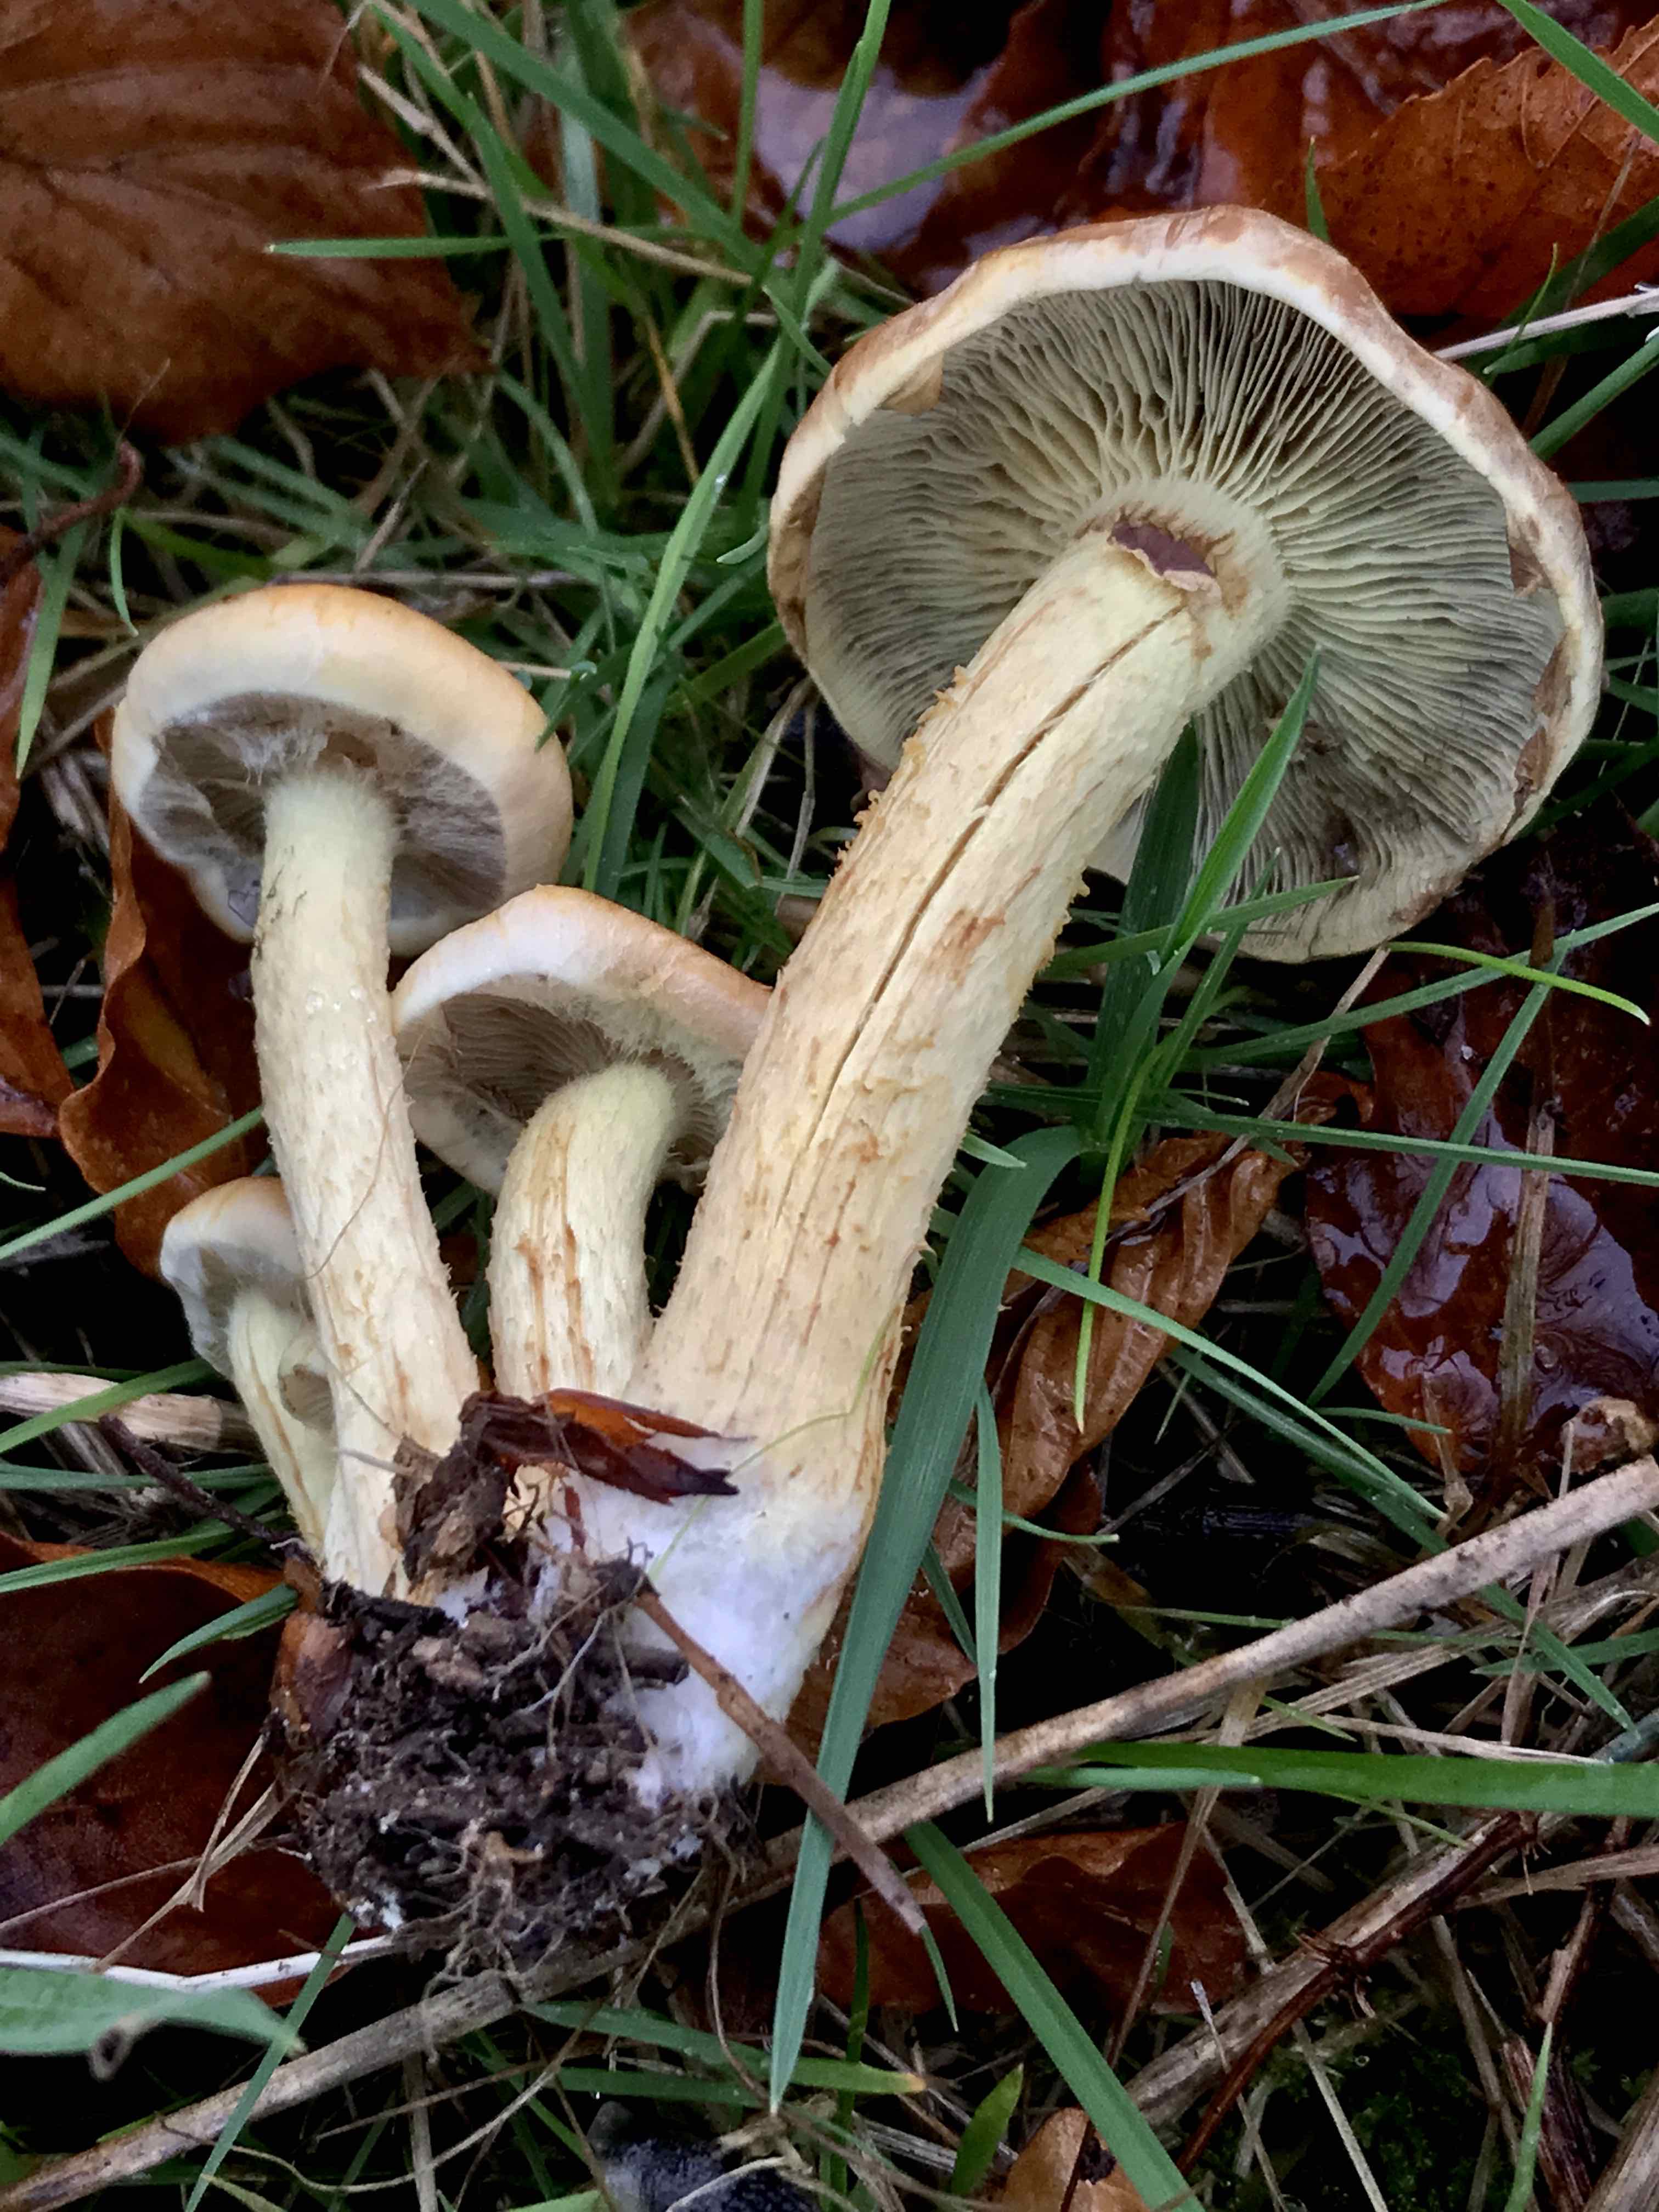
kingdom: Fungi
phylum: Basidiomycota
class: Agaricomycetes
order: Agaricales
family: Strophariaceae
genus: Hypholoma
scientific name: Hypholoma lateritium
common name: teglrød svovlhat
